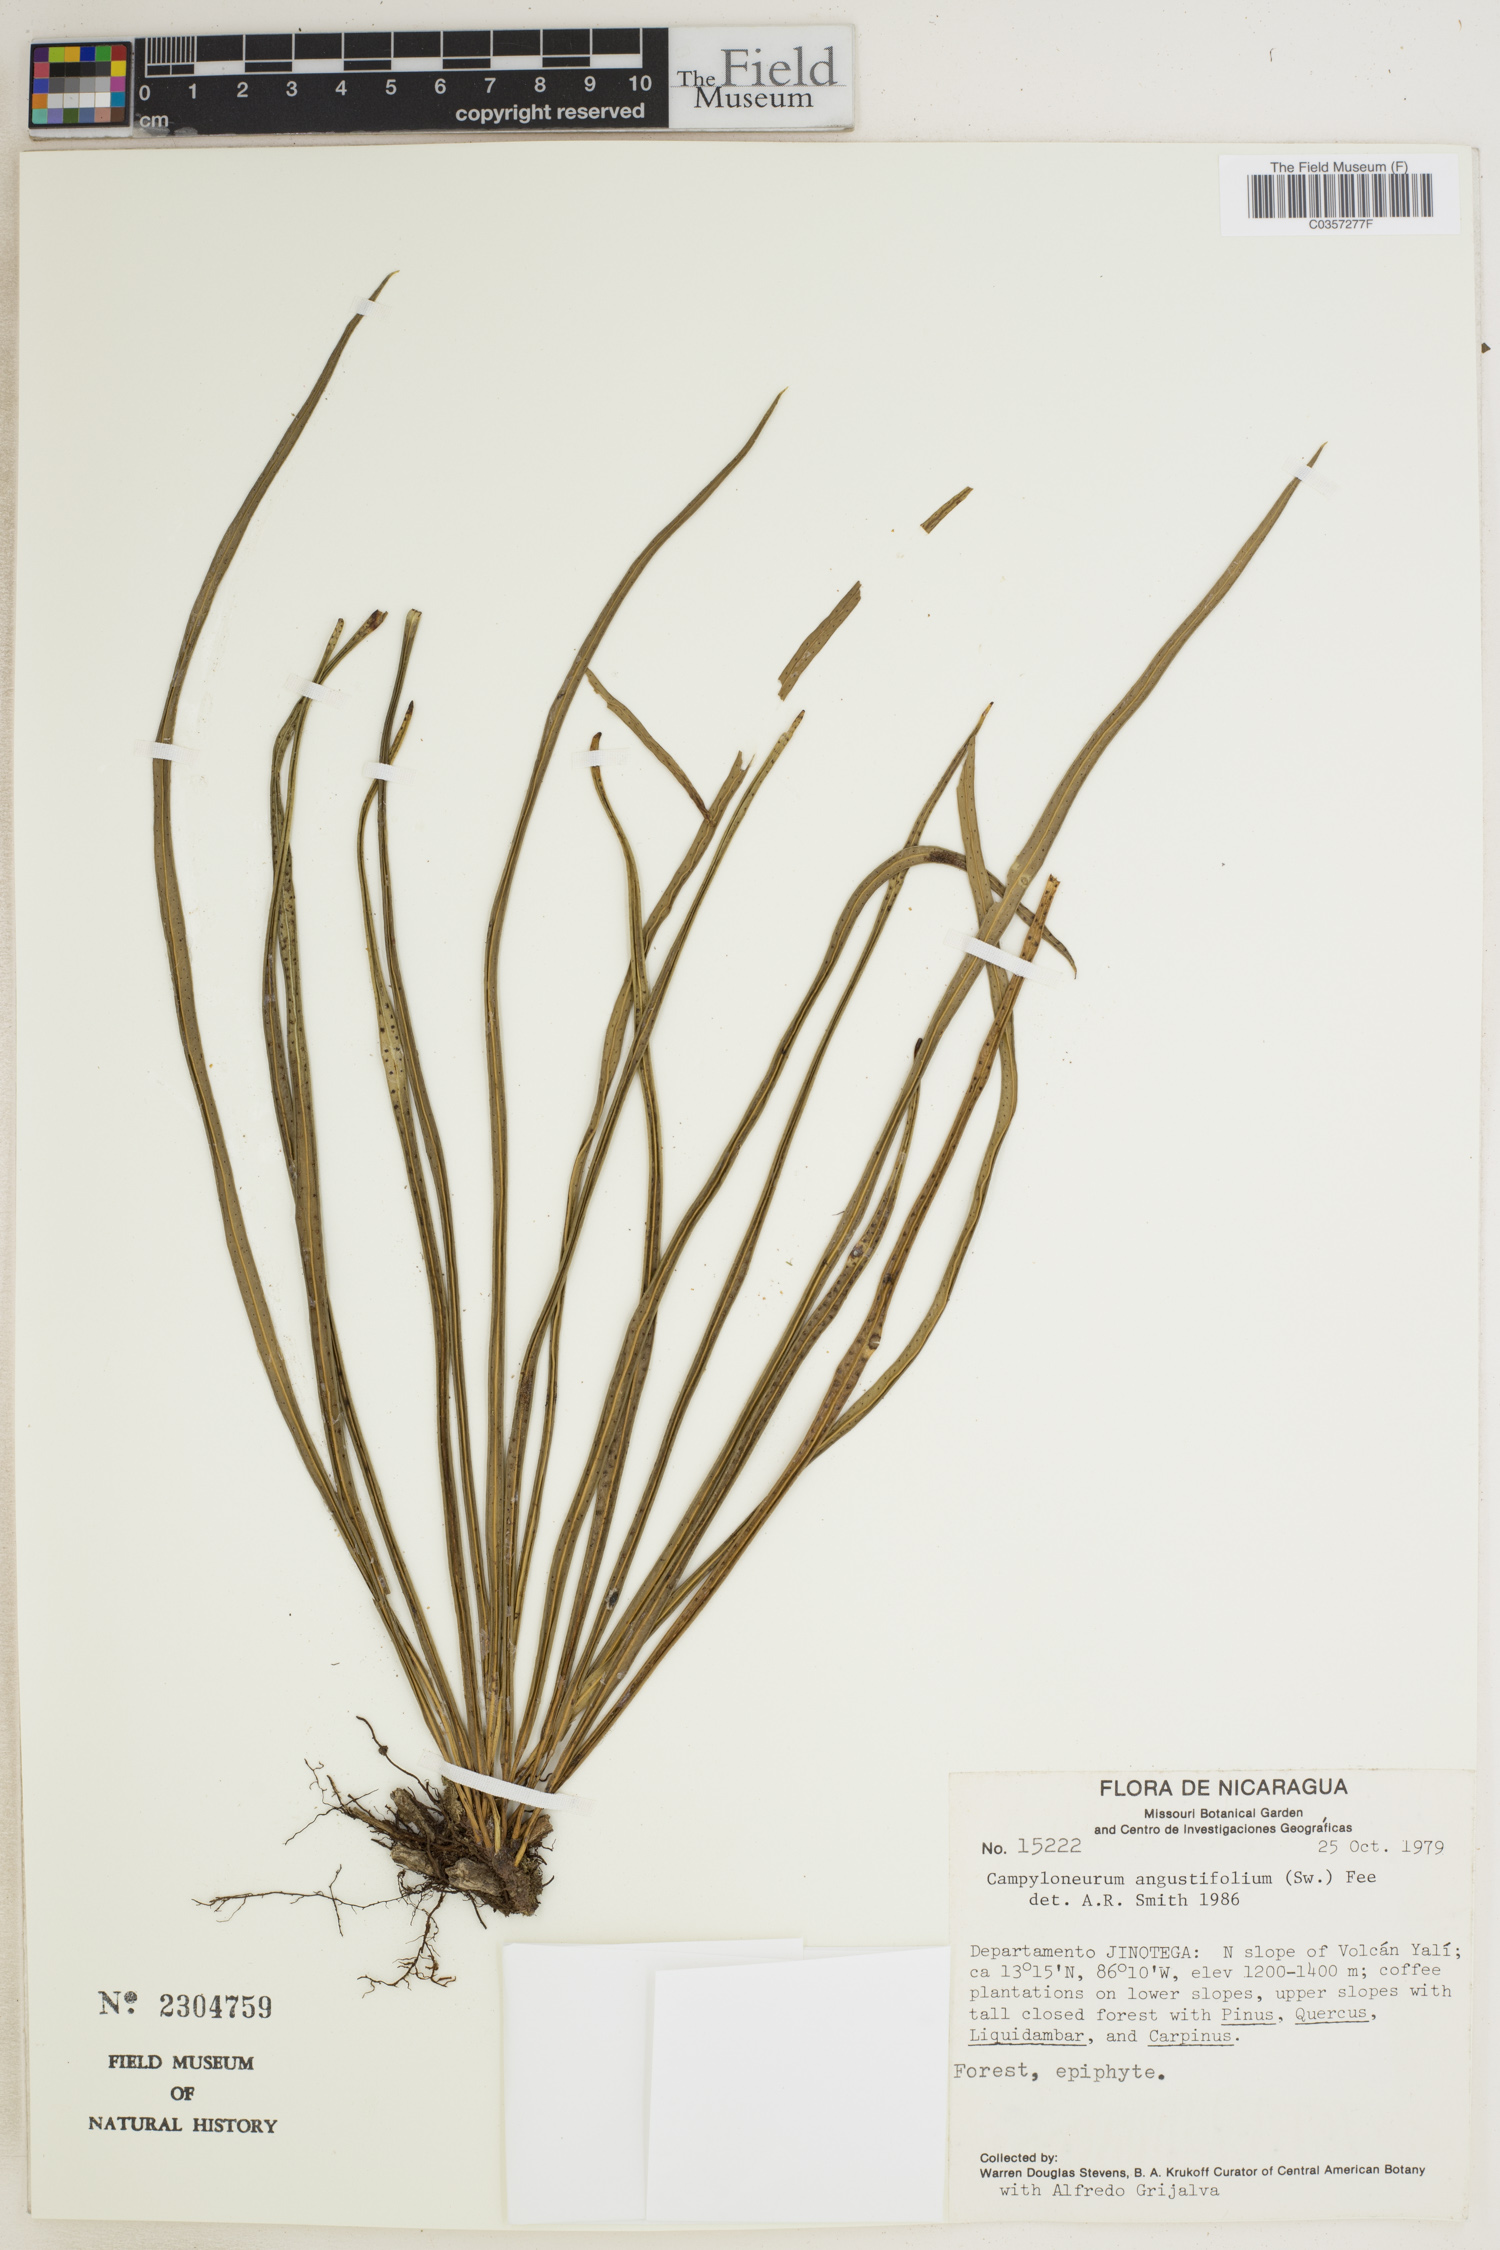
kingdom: Plantae
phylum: Tracheophyta
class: Polypodiopsida
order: Polypodiales
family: Polypodiaceae
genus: Campyloneurum
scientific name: Campyloneurum angustifolium
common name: Narrow-leaf strap fern
